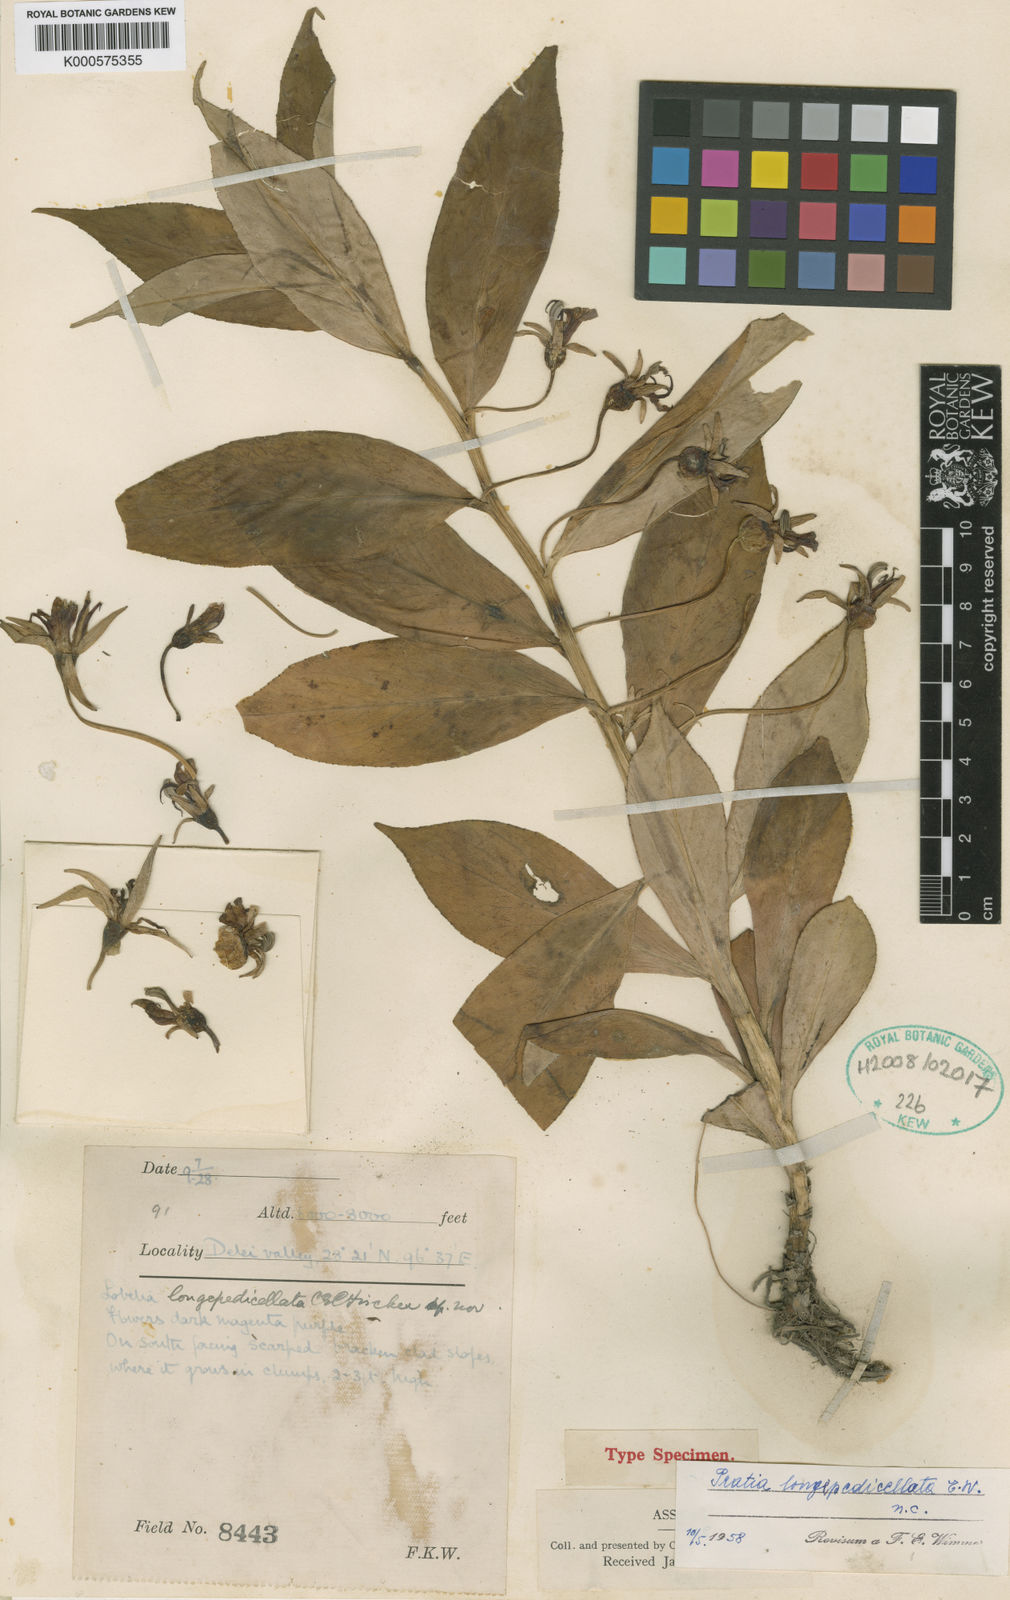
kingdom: Plantae
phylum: Tracheophyta
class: Magnoliopsida
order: Asterales
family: Campanulaceae
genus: Lobelia
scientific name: Lobelia
